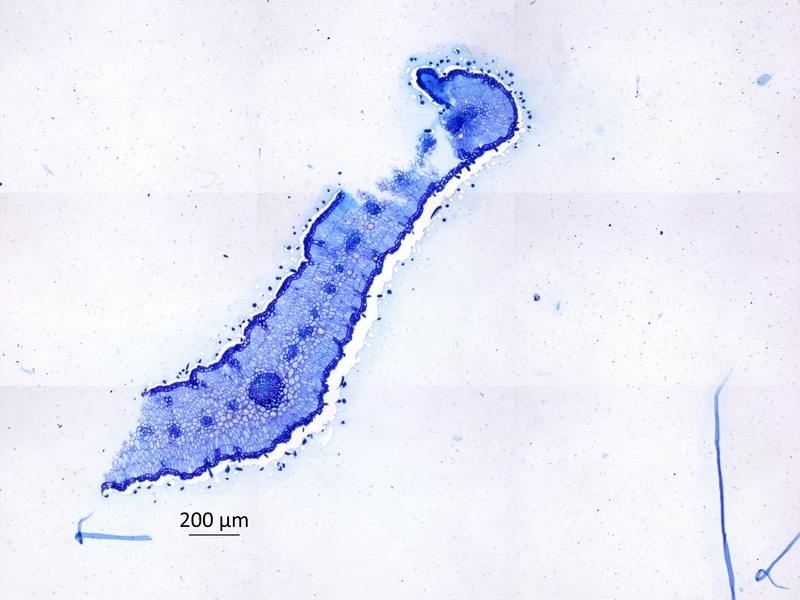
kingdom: Plantae
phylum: Tracheophyta
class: Magnoliopsida
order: Zygophyllales
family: Zygophyllaceae
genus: Neoluederitzia
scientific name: Neoluederitzia sericeocarpa
